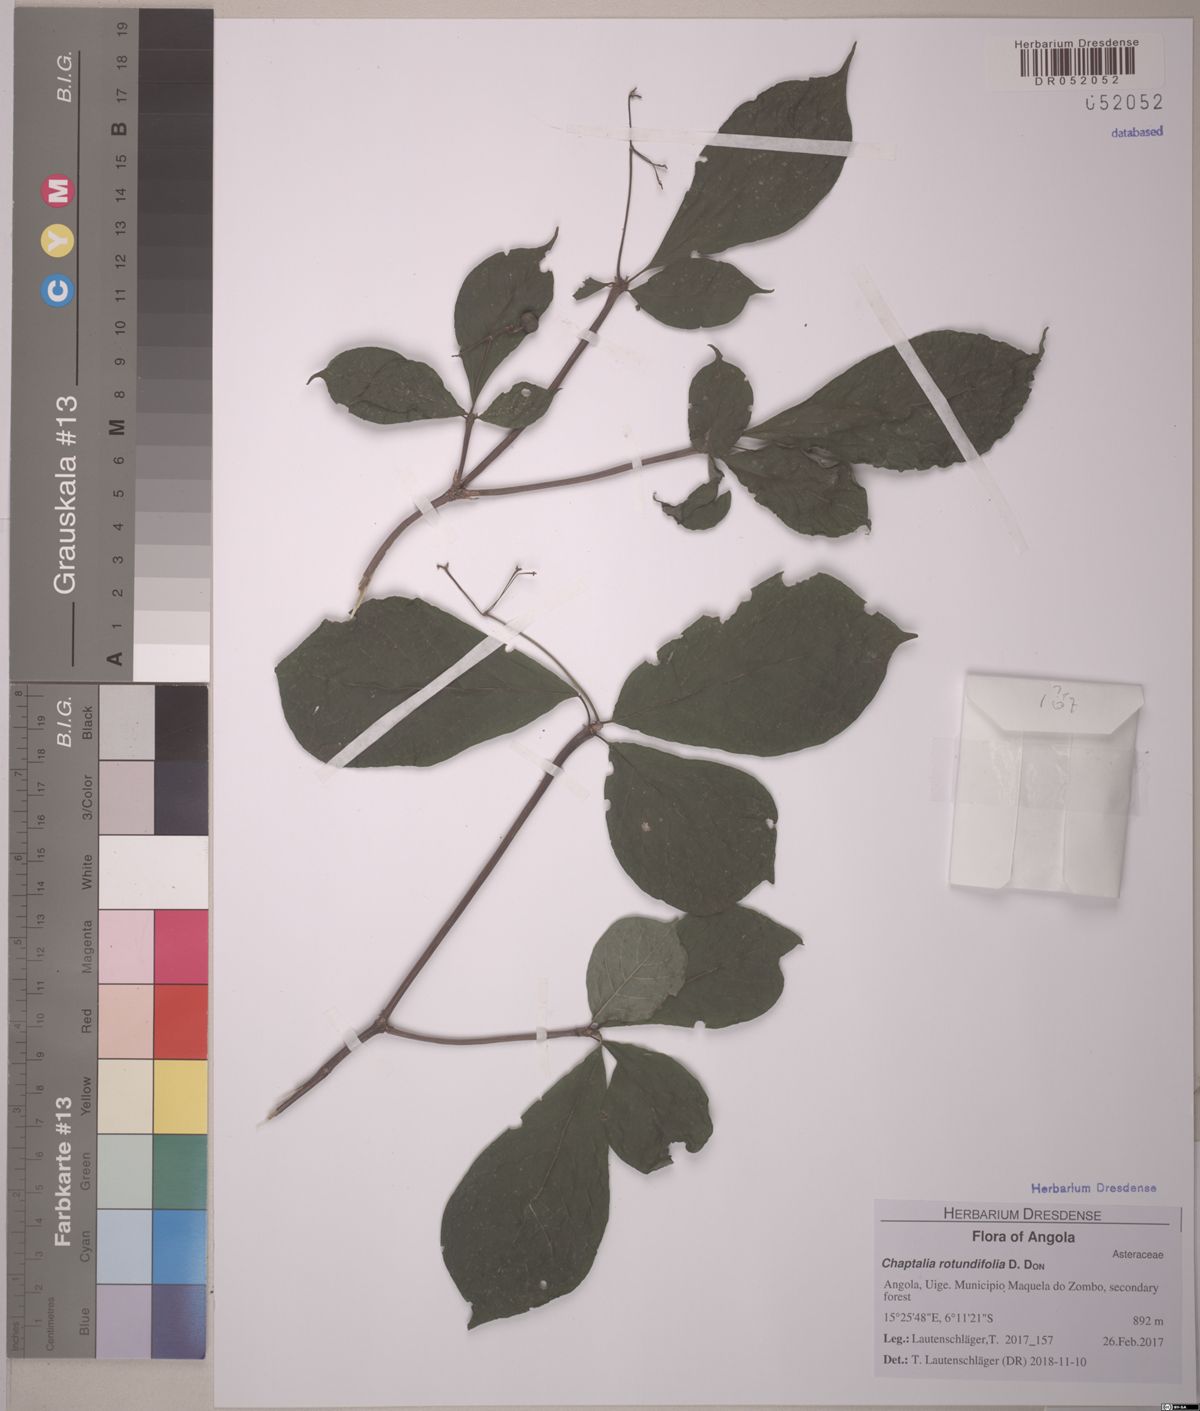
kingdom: Plantae
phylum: Tracheophyta
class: Magnoliopsida
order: Gentianales
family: Rubiaceae
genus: Eumachia
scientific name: Eumachia gossweileri
